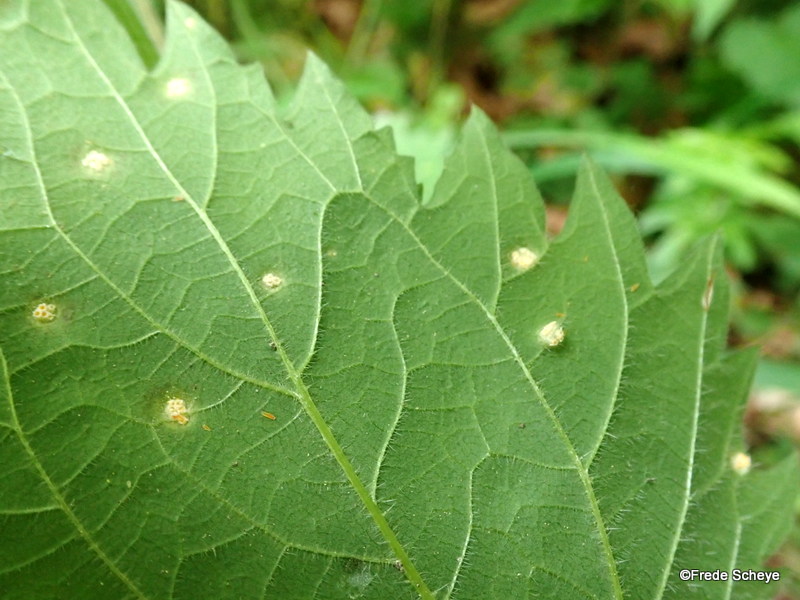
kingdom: Fungi
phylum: Basidiomycota
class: Pucciniomycetes
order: Pucciniales
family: Pucciniaceae
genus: Puccinia
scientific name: Puccinia iridis
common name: iris-tvecellerust
